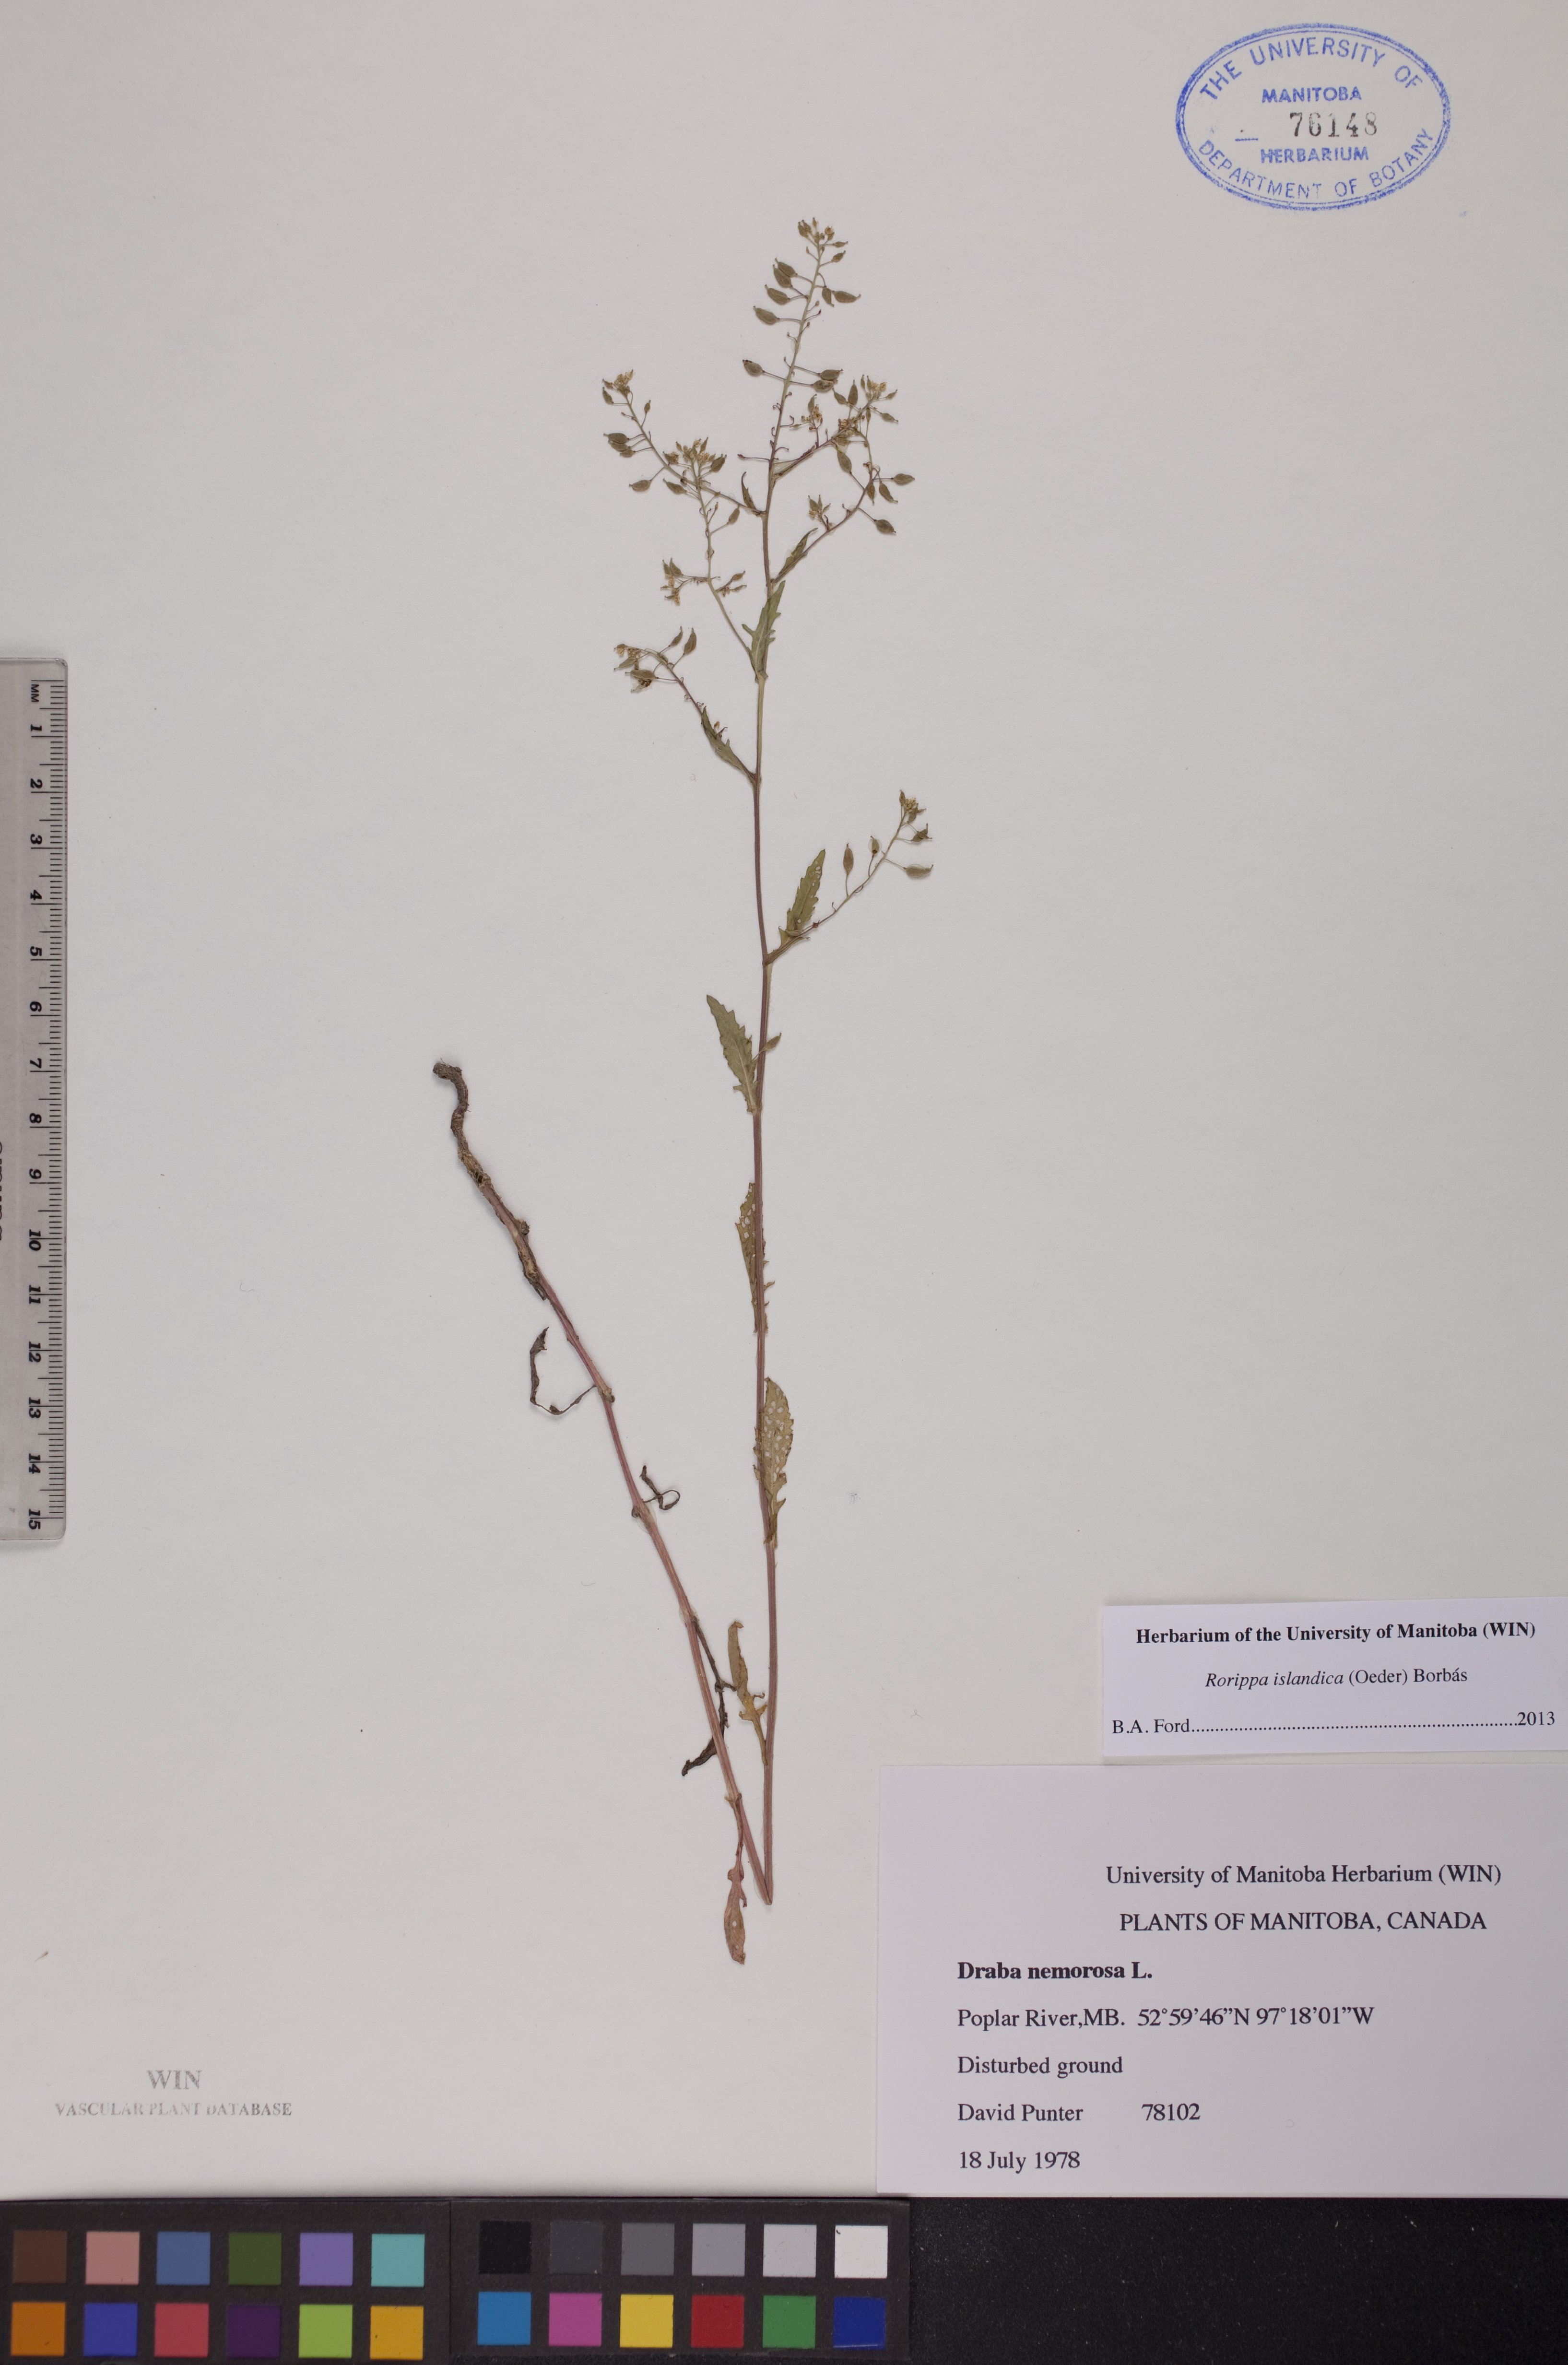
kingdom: Plantae
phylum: Tracheophyta
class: Magnoliopsida
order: Brassicales
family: Brassicaceae
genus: Rorippa
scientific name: Rorippa islandica
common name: Marsh cress
